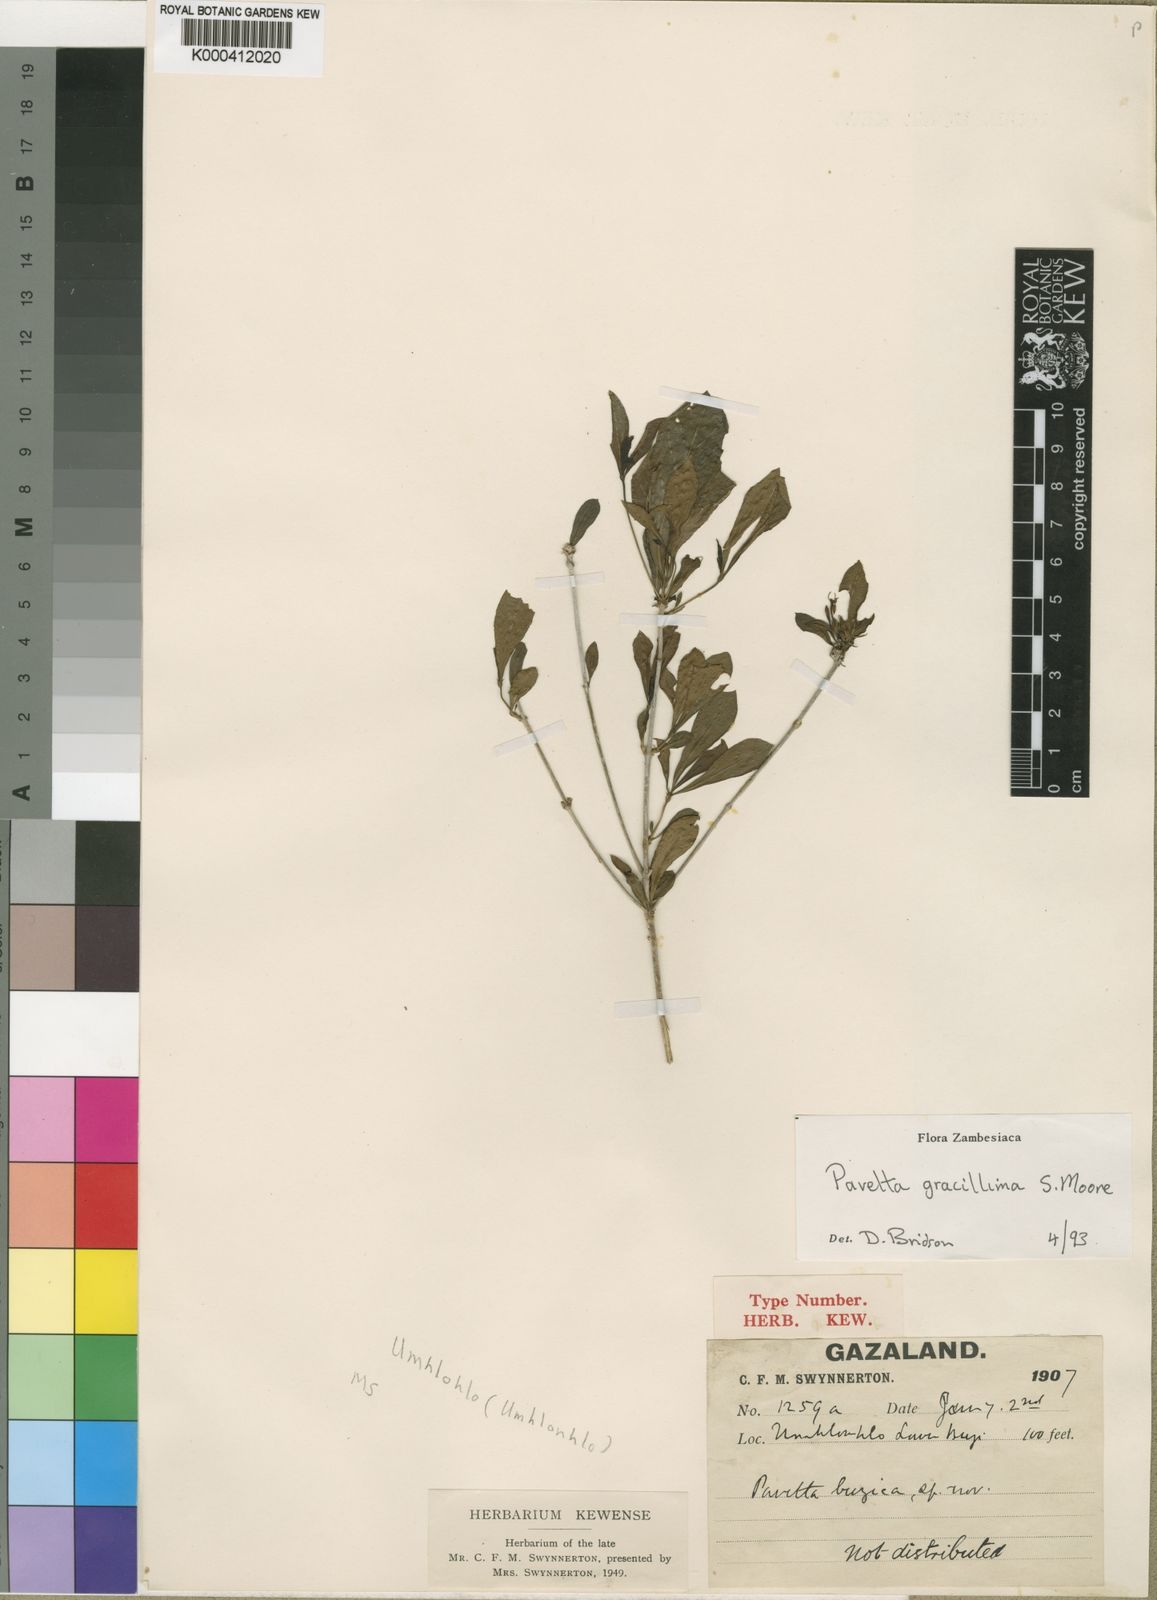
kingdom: Plantae
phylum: Tracheophyta
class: Magnoliopsida
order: Gentianales
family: Rubiaceae
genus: Pavetta
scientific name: Pavetta gracillima
